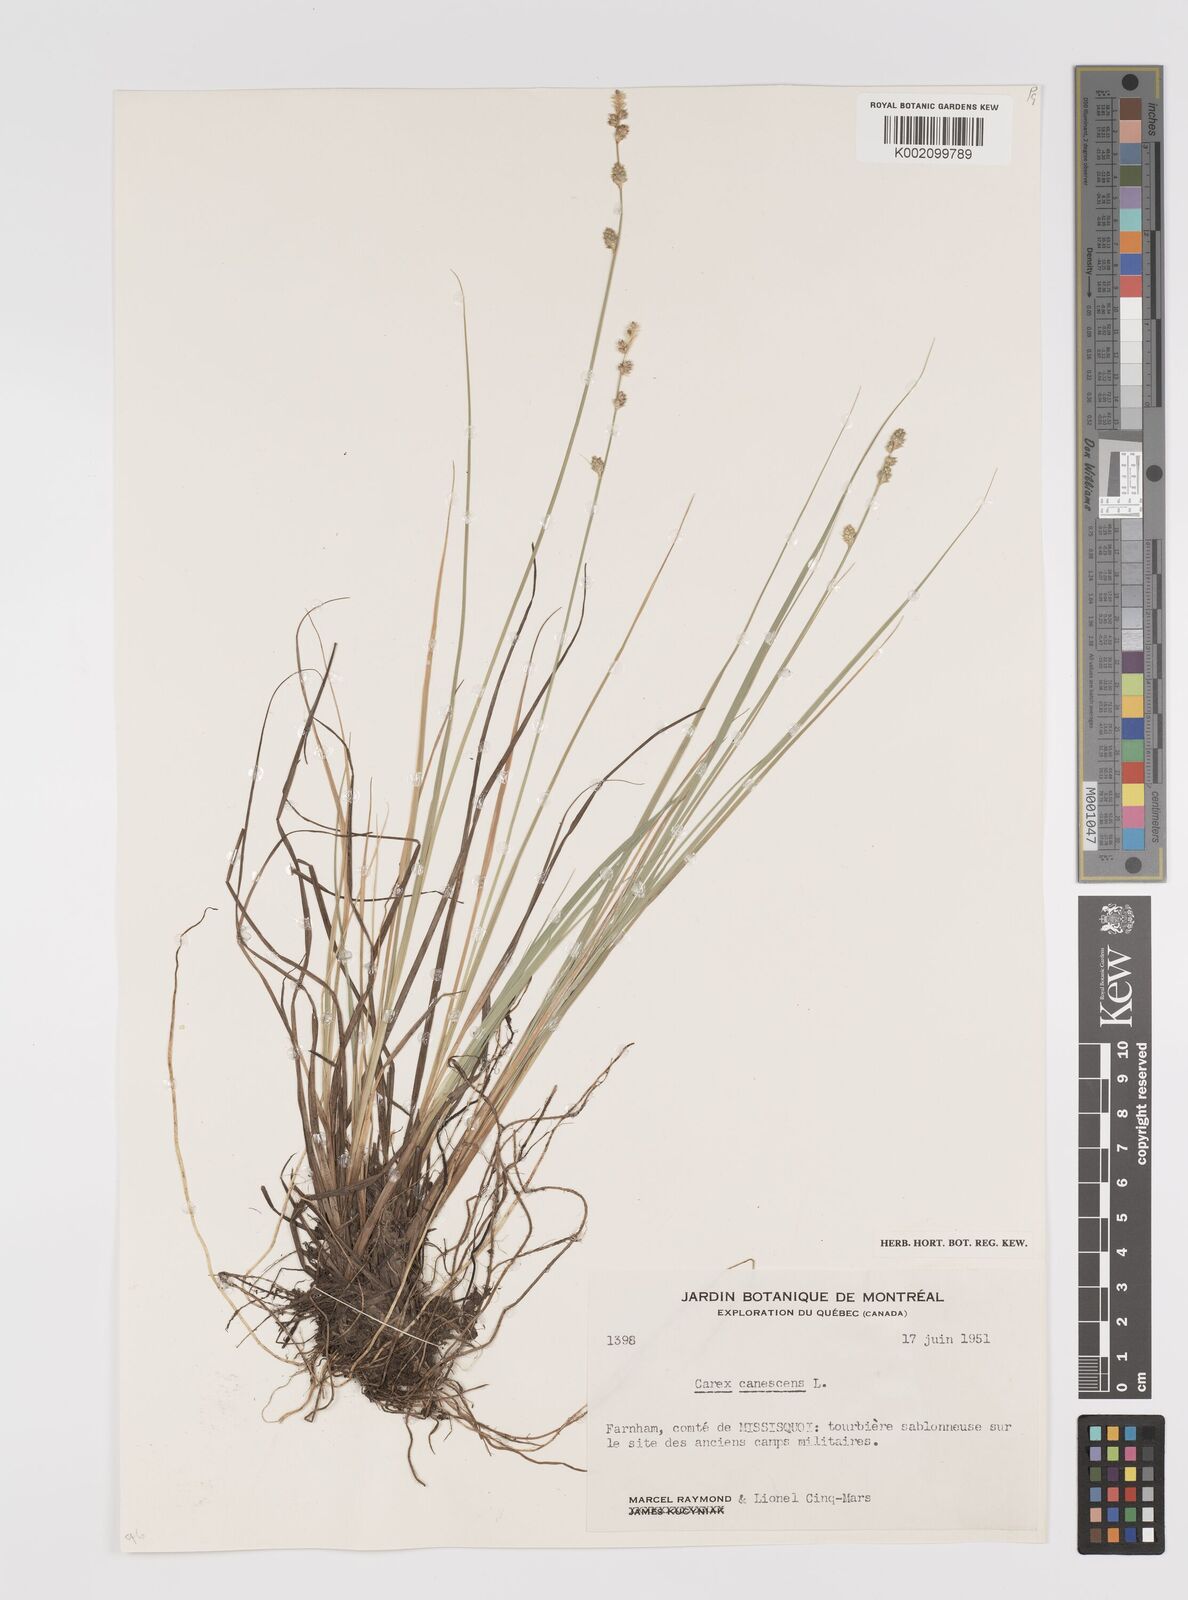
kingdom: Plantae
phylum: Tracheophyta
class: Liliopsida
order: Poales
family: Cyperaceae
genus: Carex
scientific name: Carex curta
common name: White sedge
